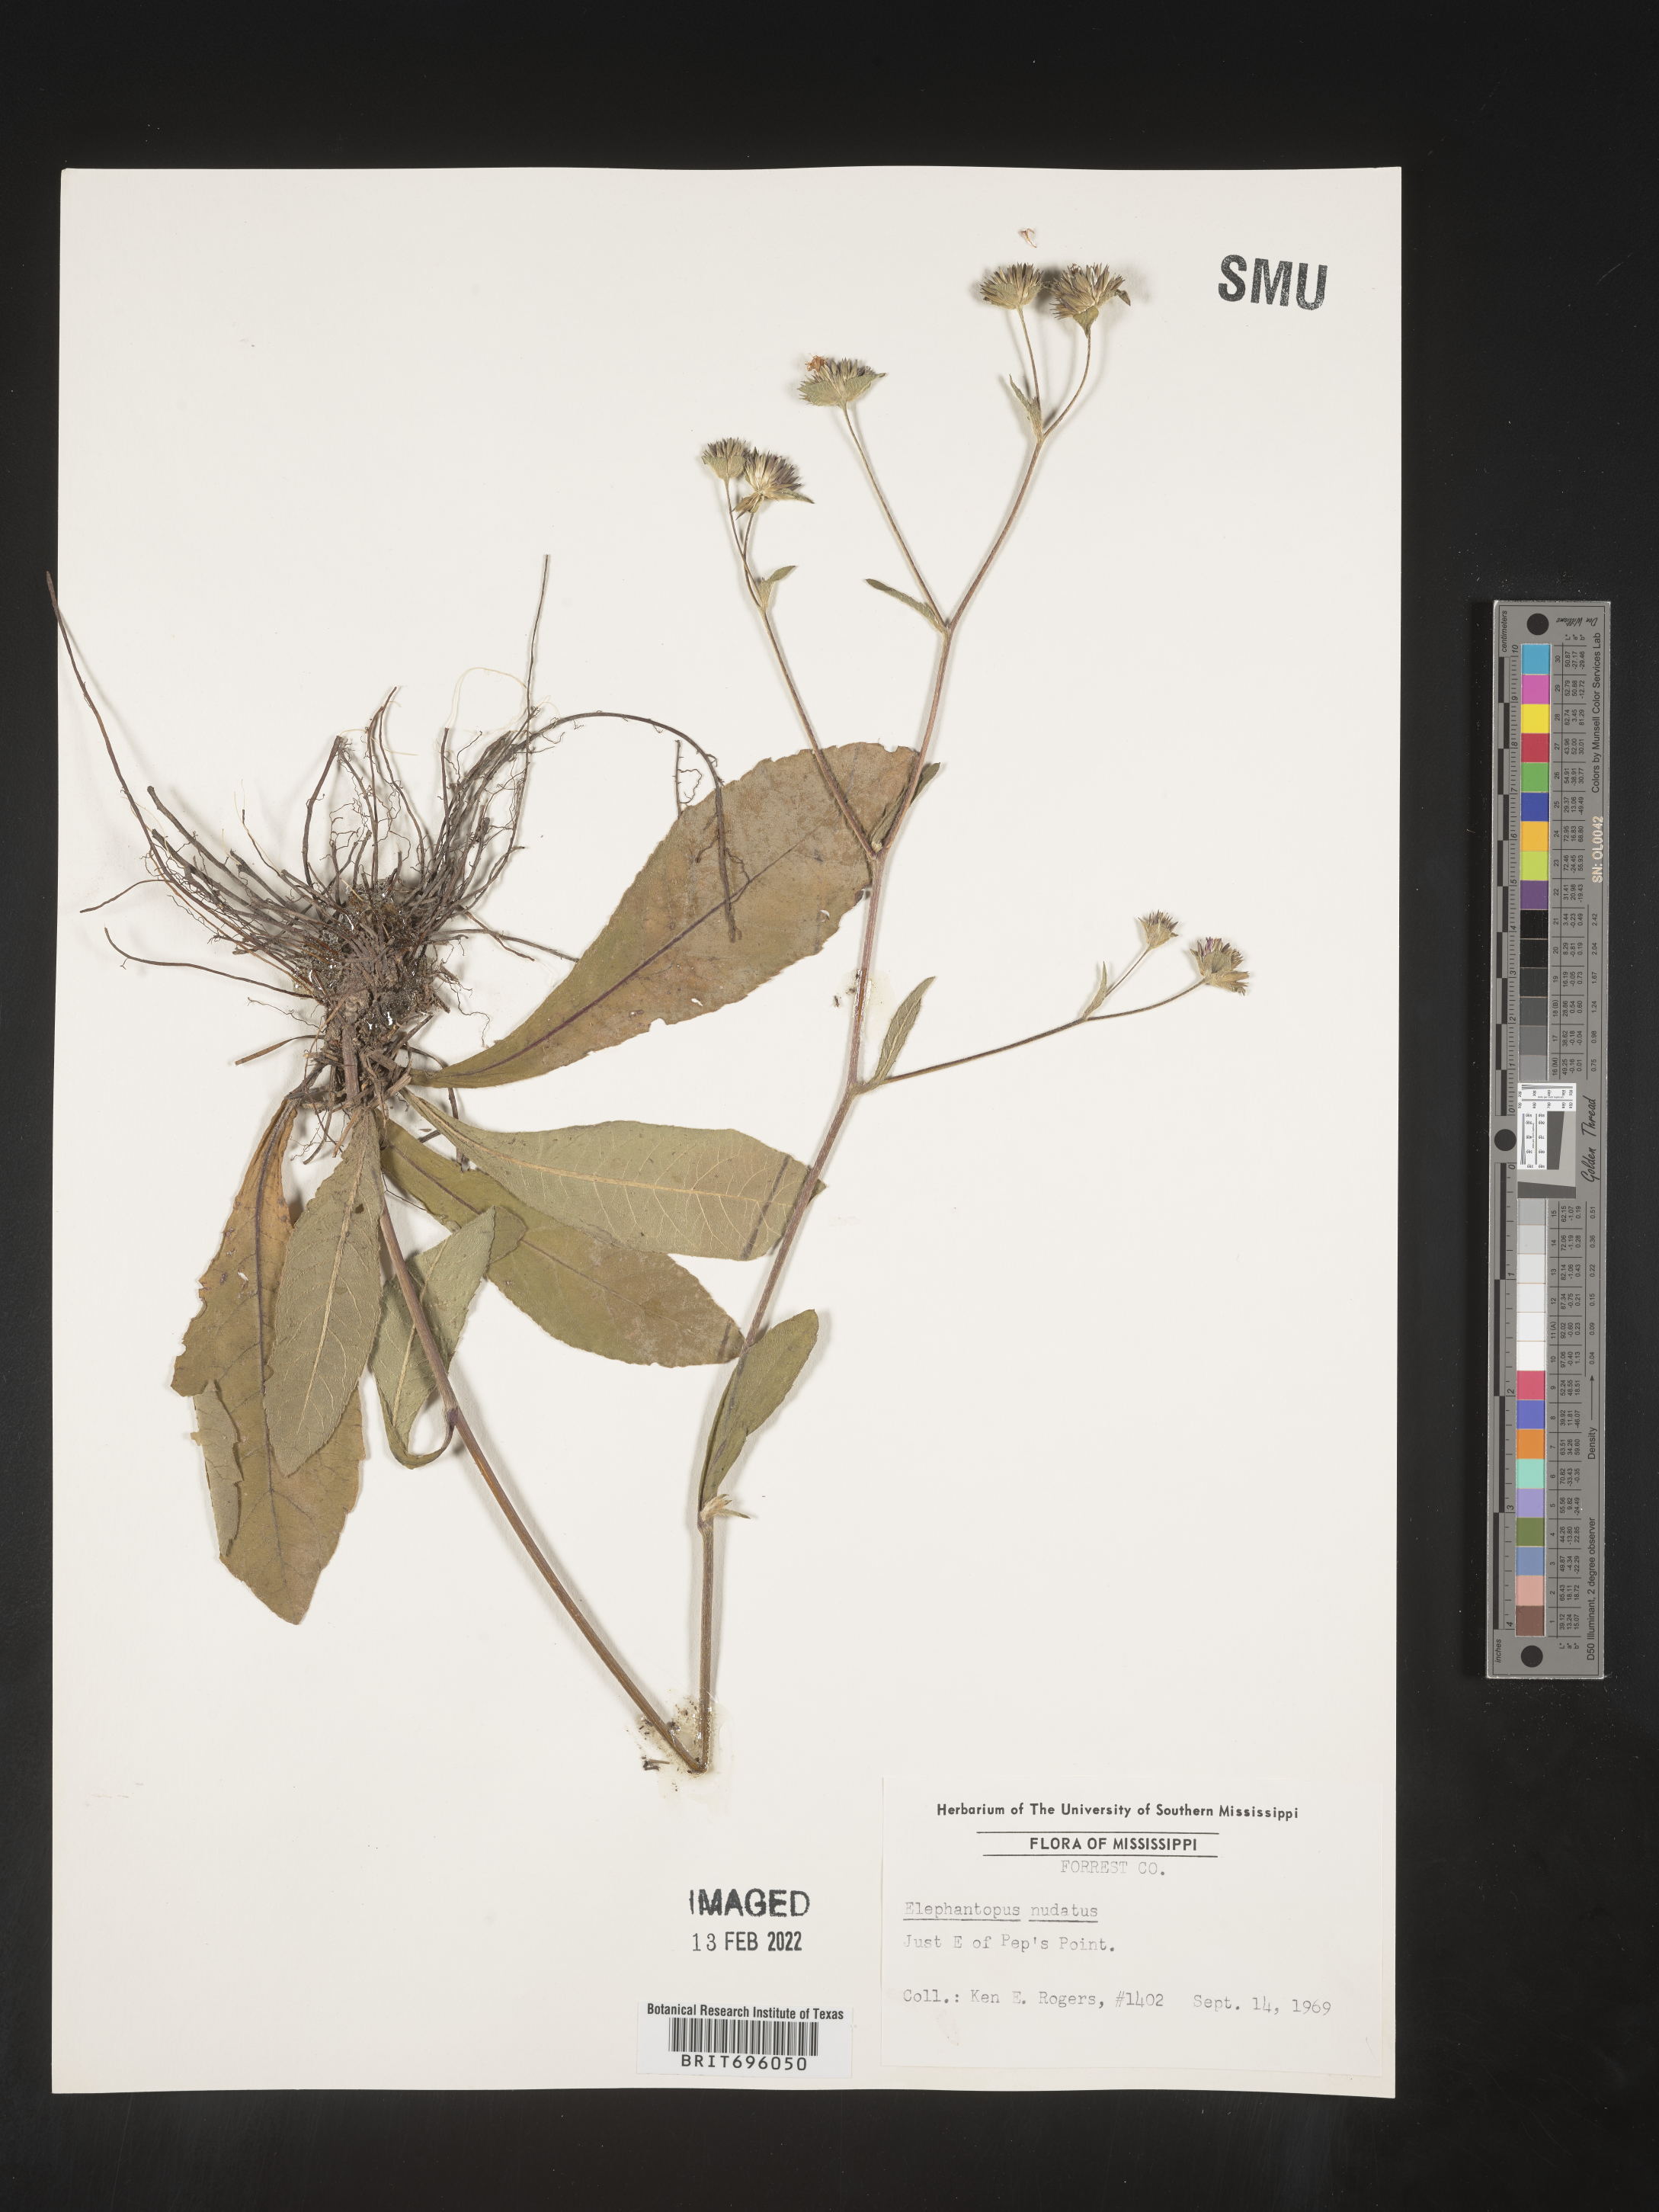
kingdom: Plantae
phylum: Tracheophyta
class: Magnoliopsida
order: Asterales
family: Asteraceae
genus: Elephantopus
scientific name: Elephantopus nudatus
